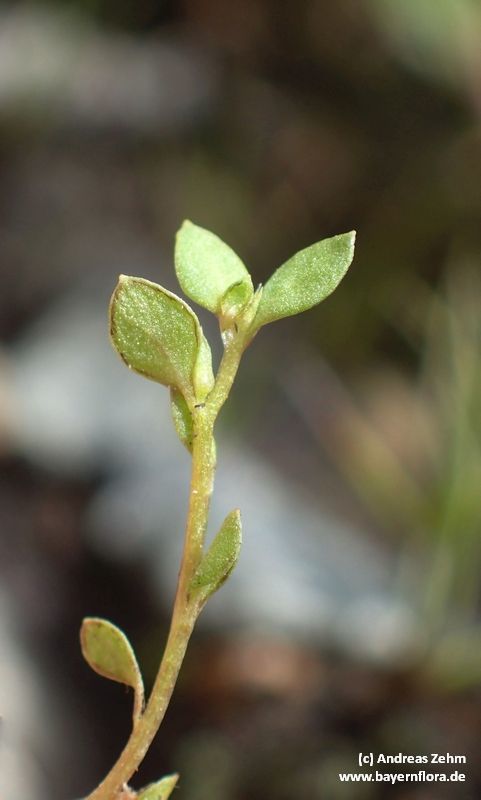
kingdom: Plantae
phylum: Tracheophyta
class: Magnoliopsida
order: Ericales
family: Primulaceae
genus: Lysimachia
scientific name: Lysimachia minima
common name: Chaffweed
